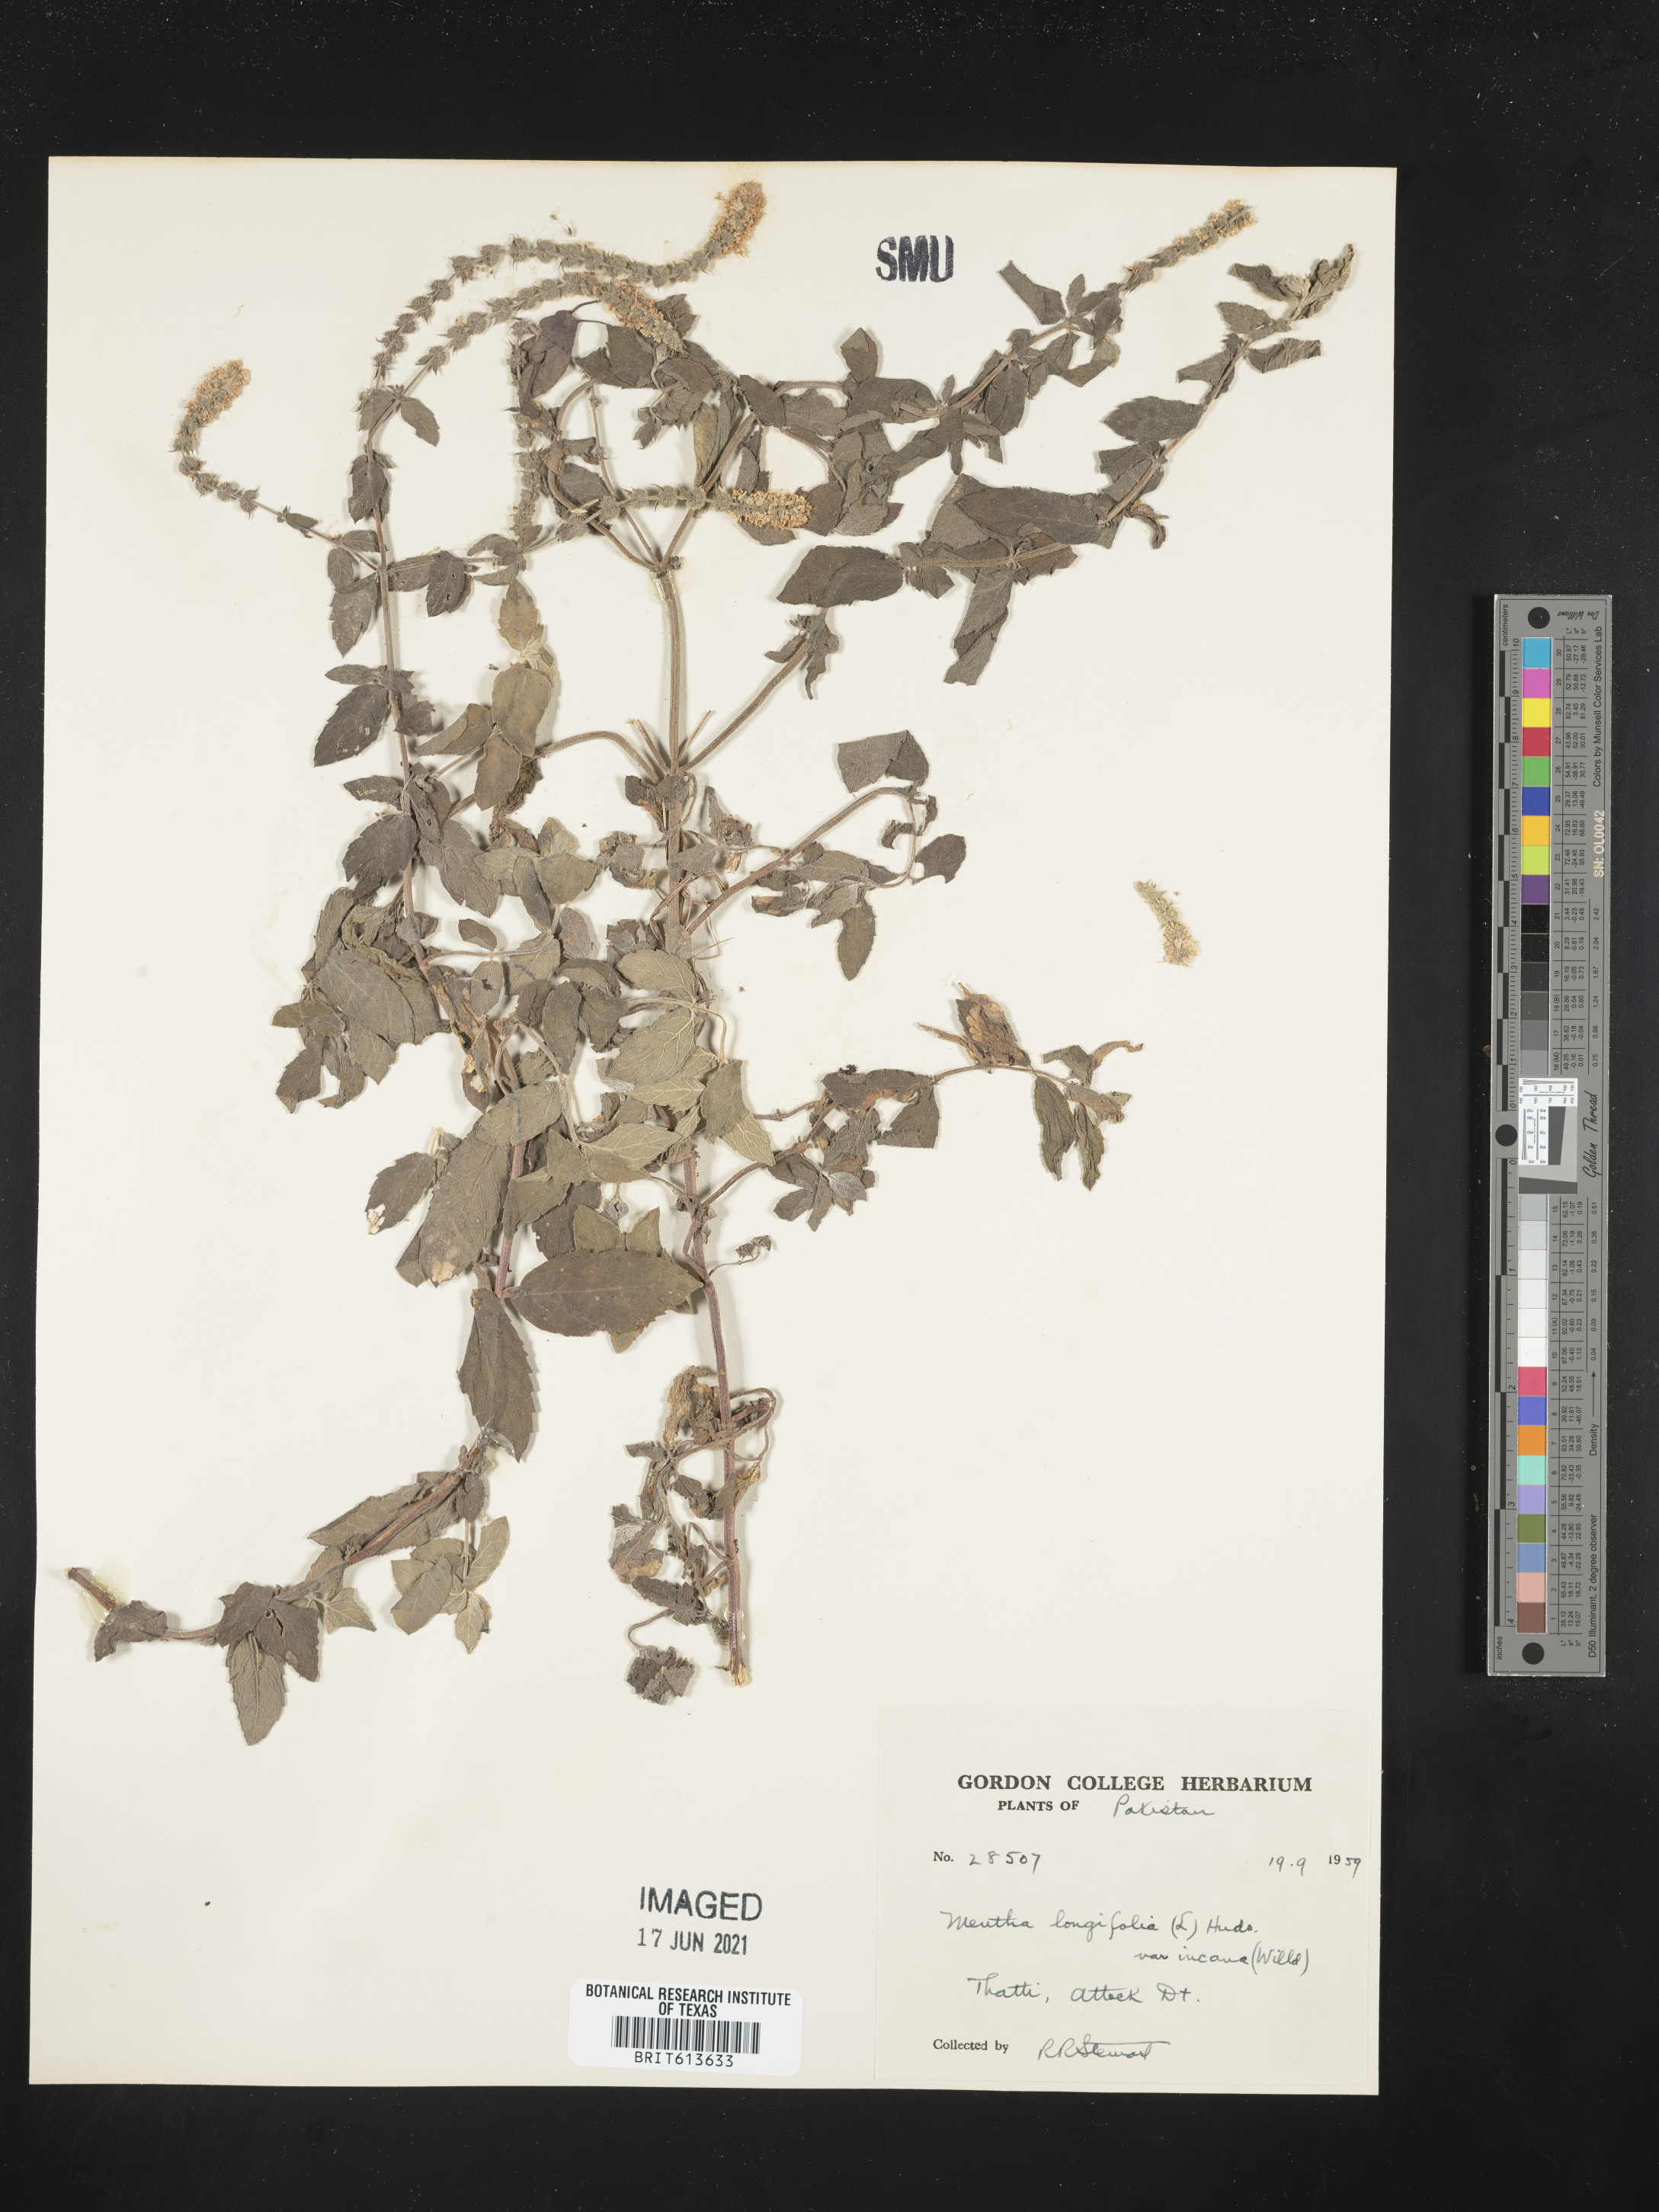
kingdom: Plantae
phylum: Tracheophyta
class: Magnoliopsida
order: Lamiales
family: Lamiaceae
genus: Mentha
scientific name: Mentha longifolia
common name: Horse mint
